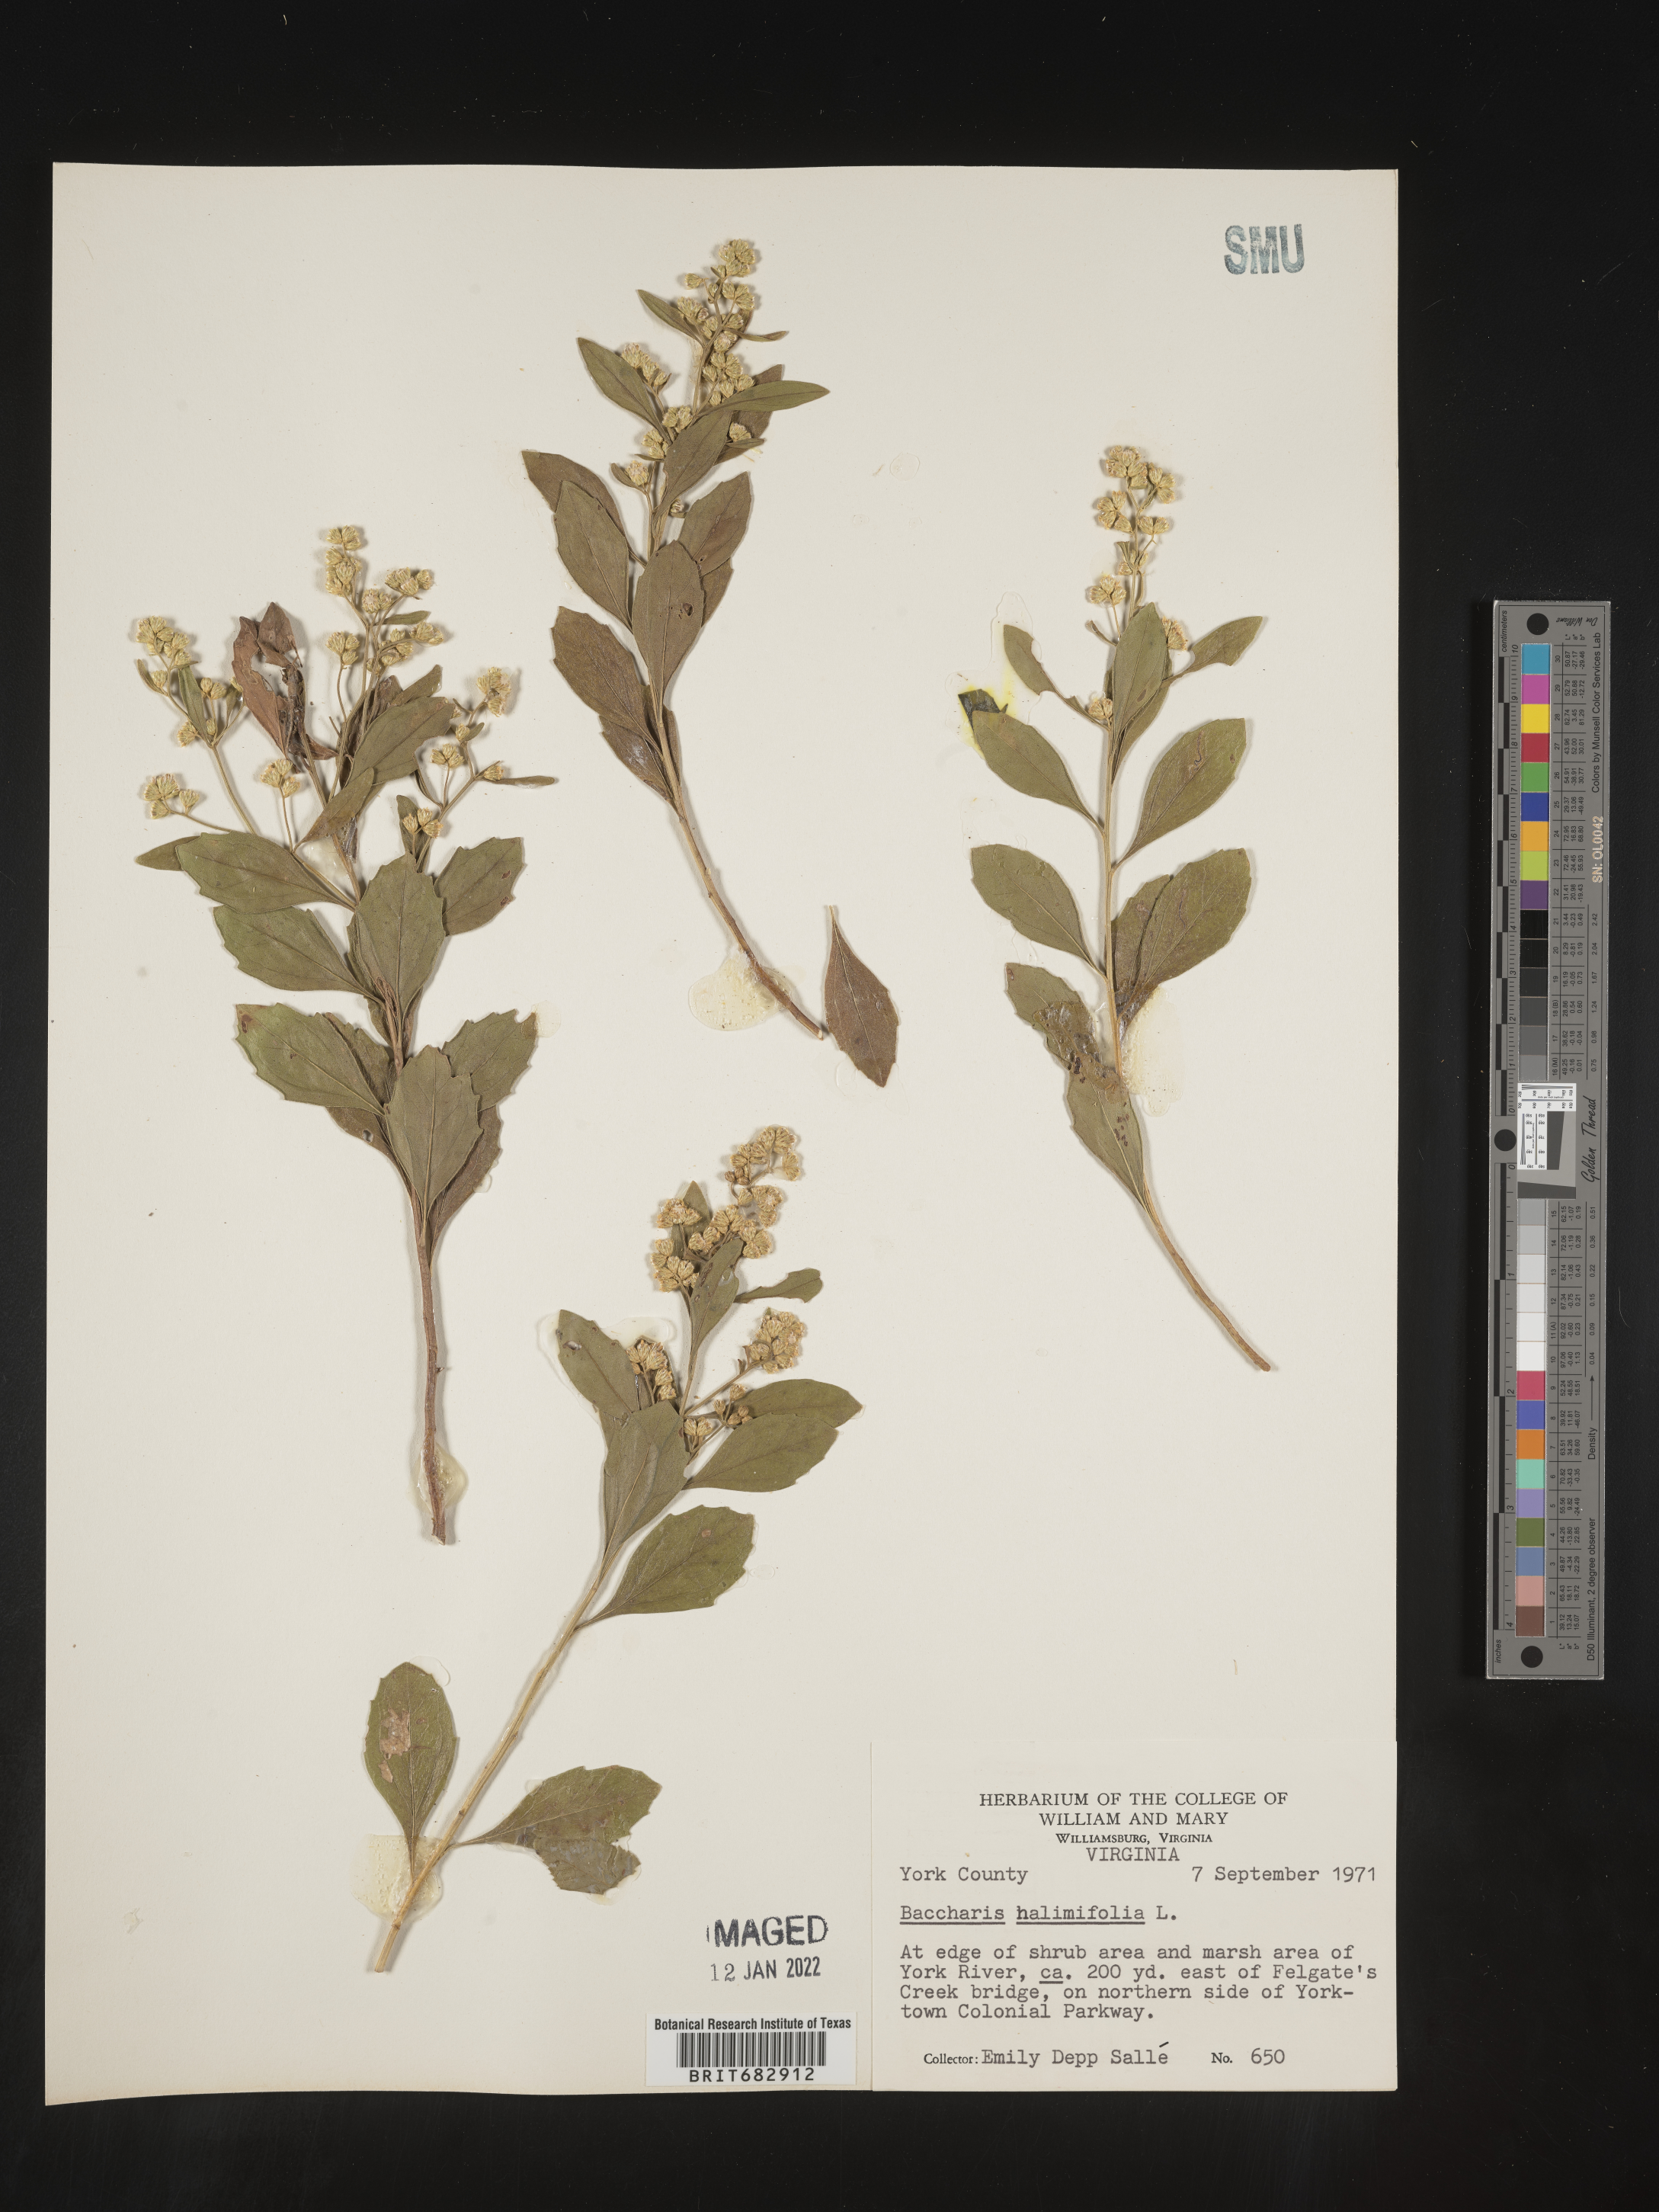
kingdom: Plantae
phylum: Tracheophyta
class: Magnoliopsida
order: Asterales
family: Asteraceae
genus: Nidorella
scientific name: Nidorella ivifolia
